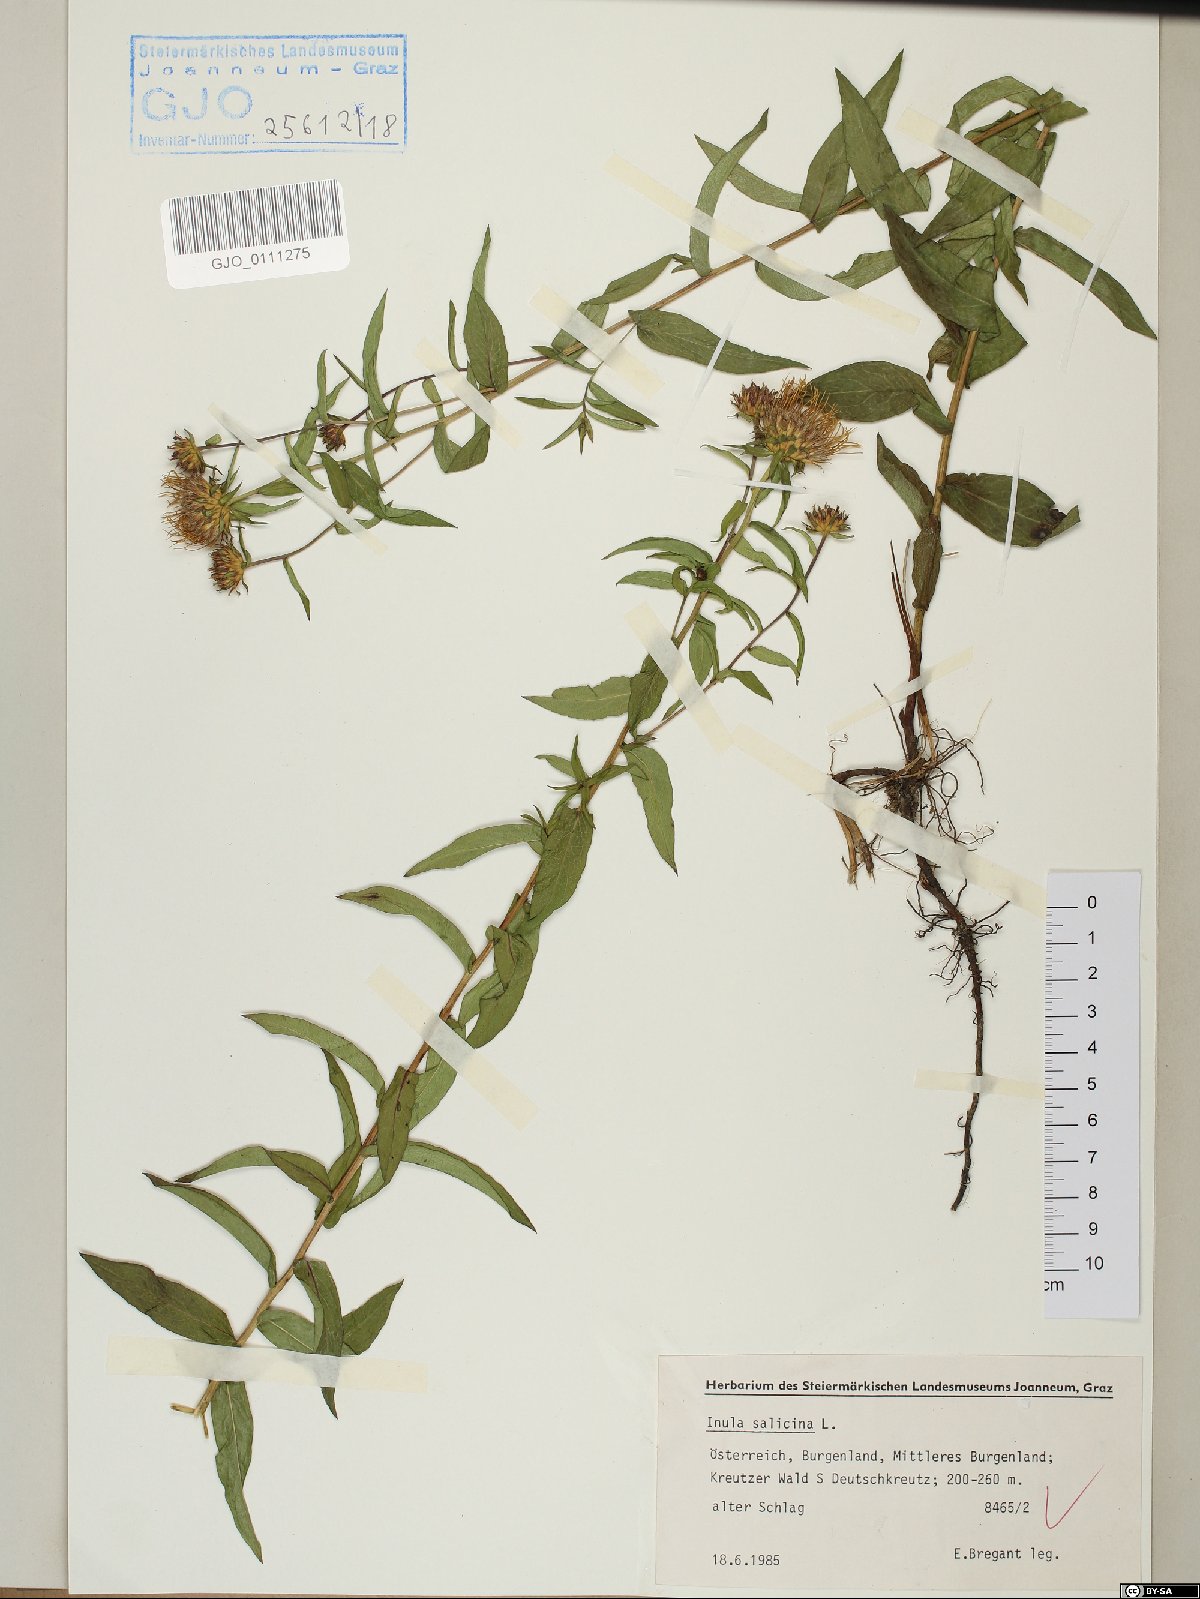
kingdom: Plantae
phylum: Tracheophyta
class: Magnoliopsida
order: Asterales
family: Asteraceae
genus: Pentanema
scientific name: Pentanema salicinum
